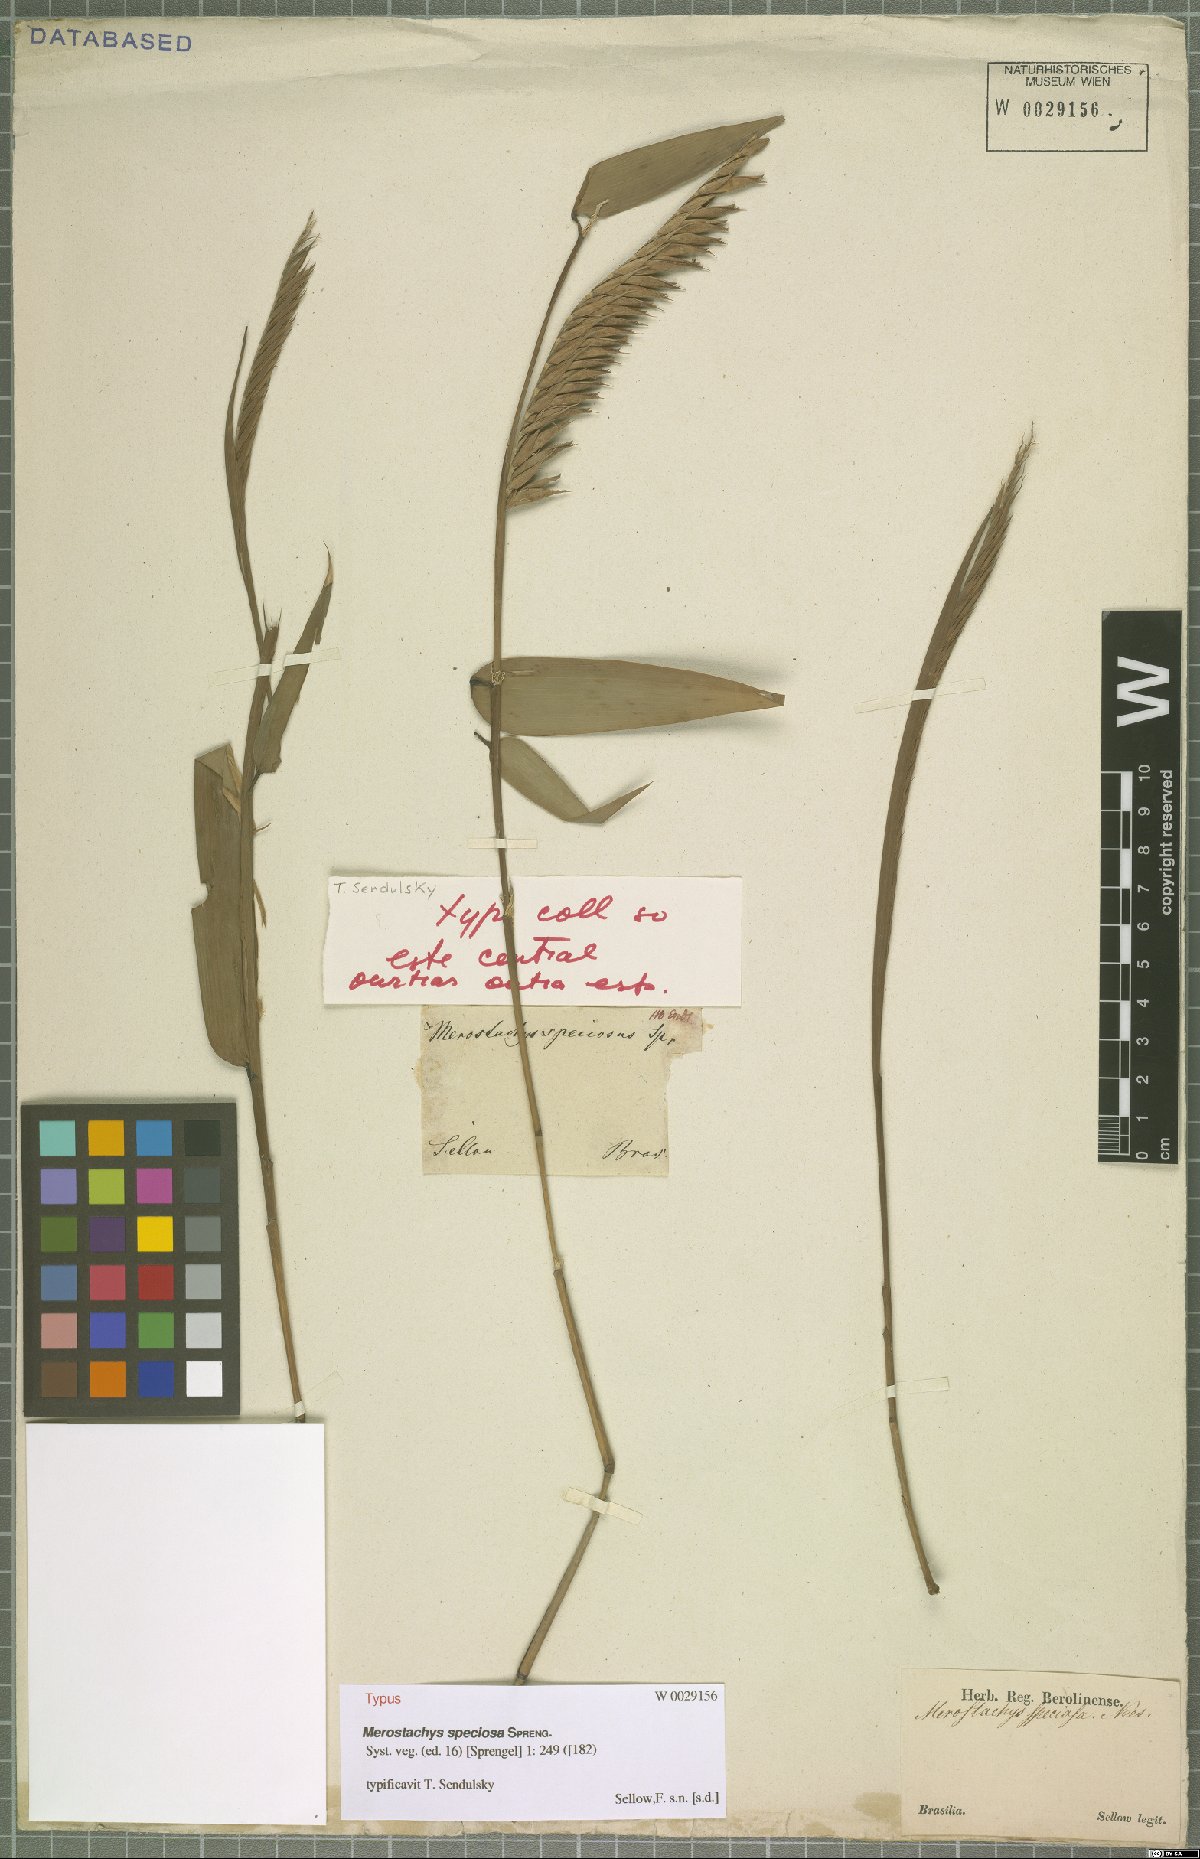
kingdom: Plantae
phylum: Tracheophyta
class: Liliopsida
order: Poales
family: Poaceae
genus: Merostachys
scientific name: Merostachys speciosa
